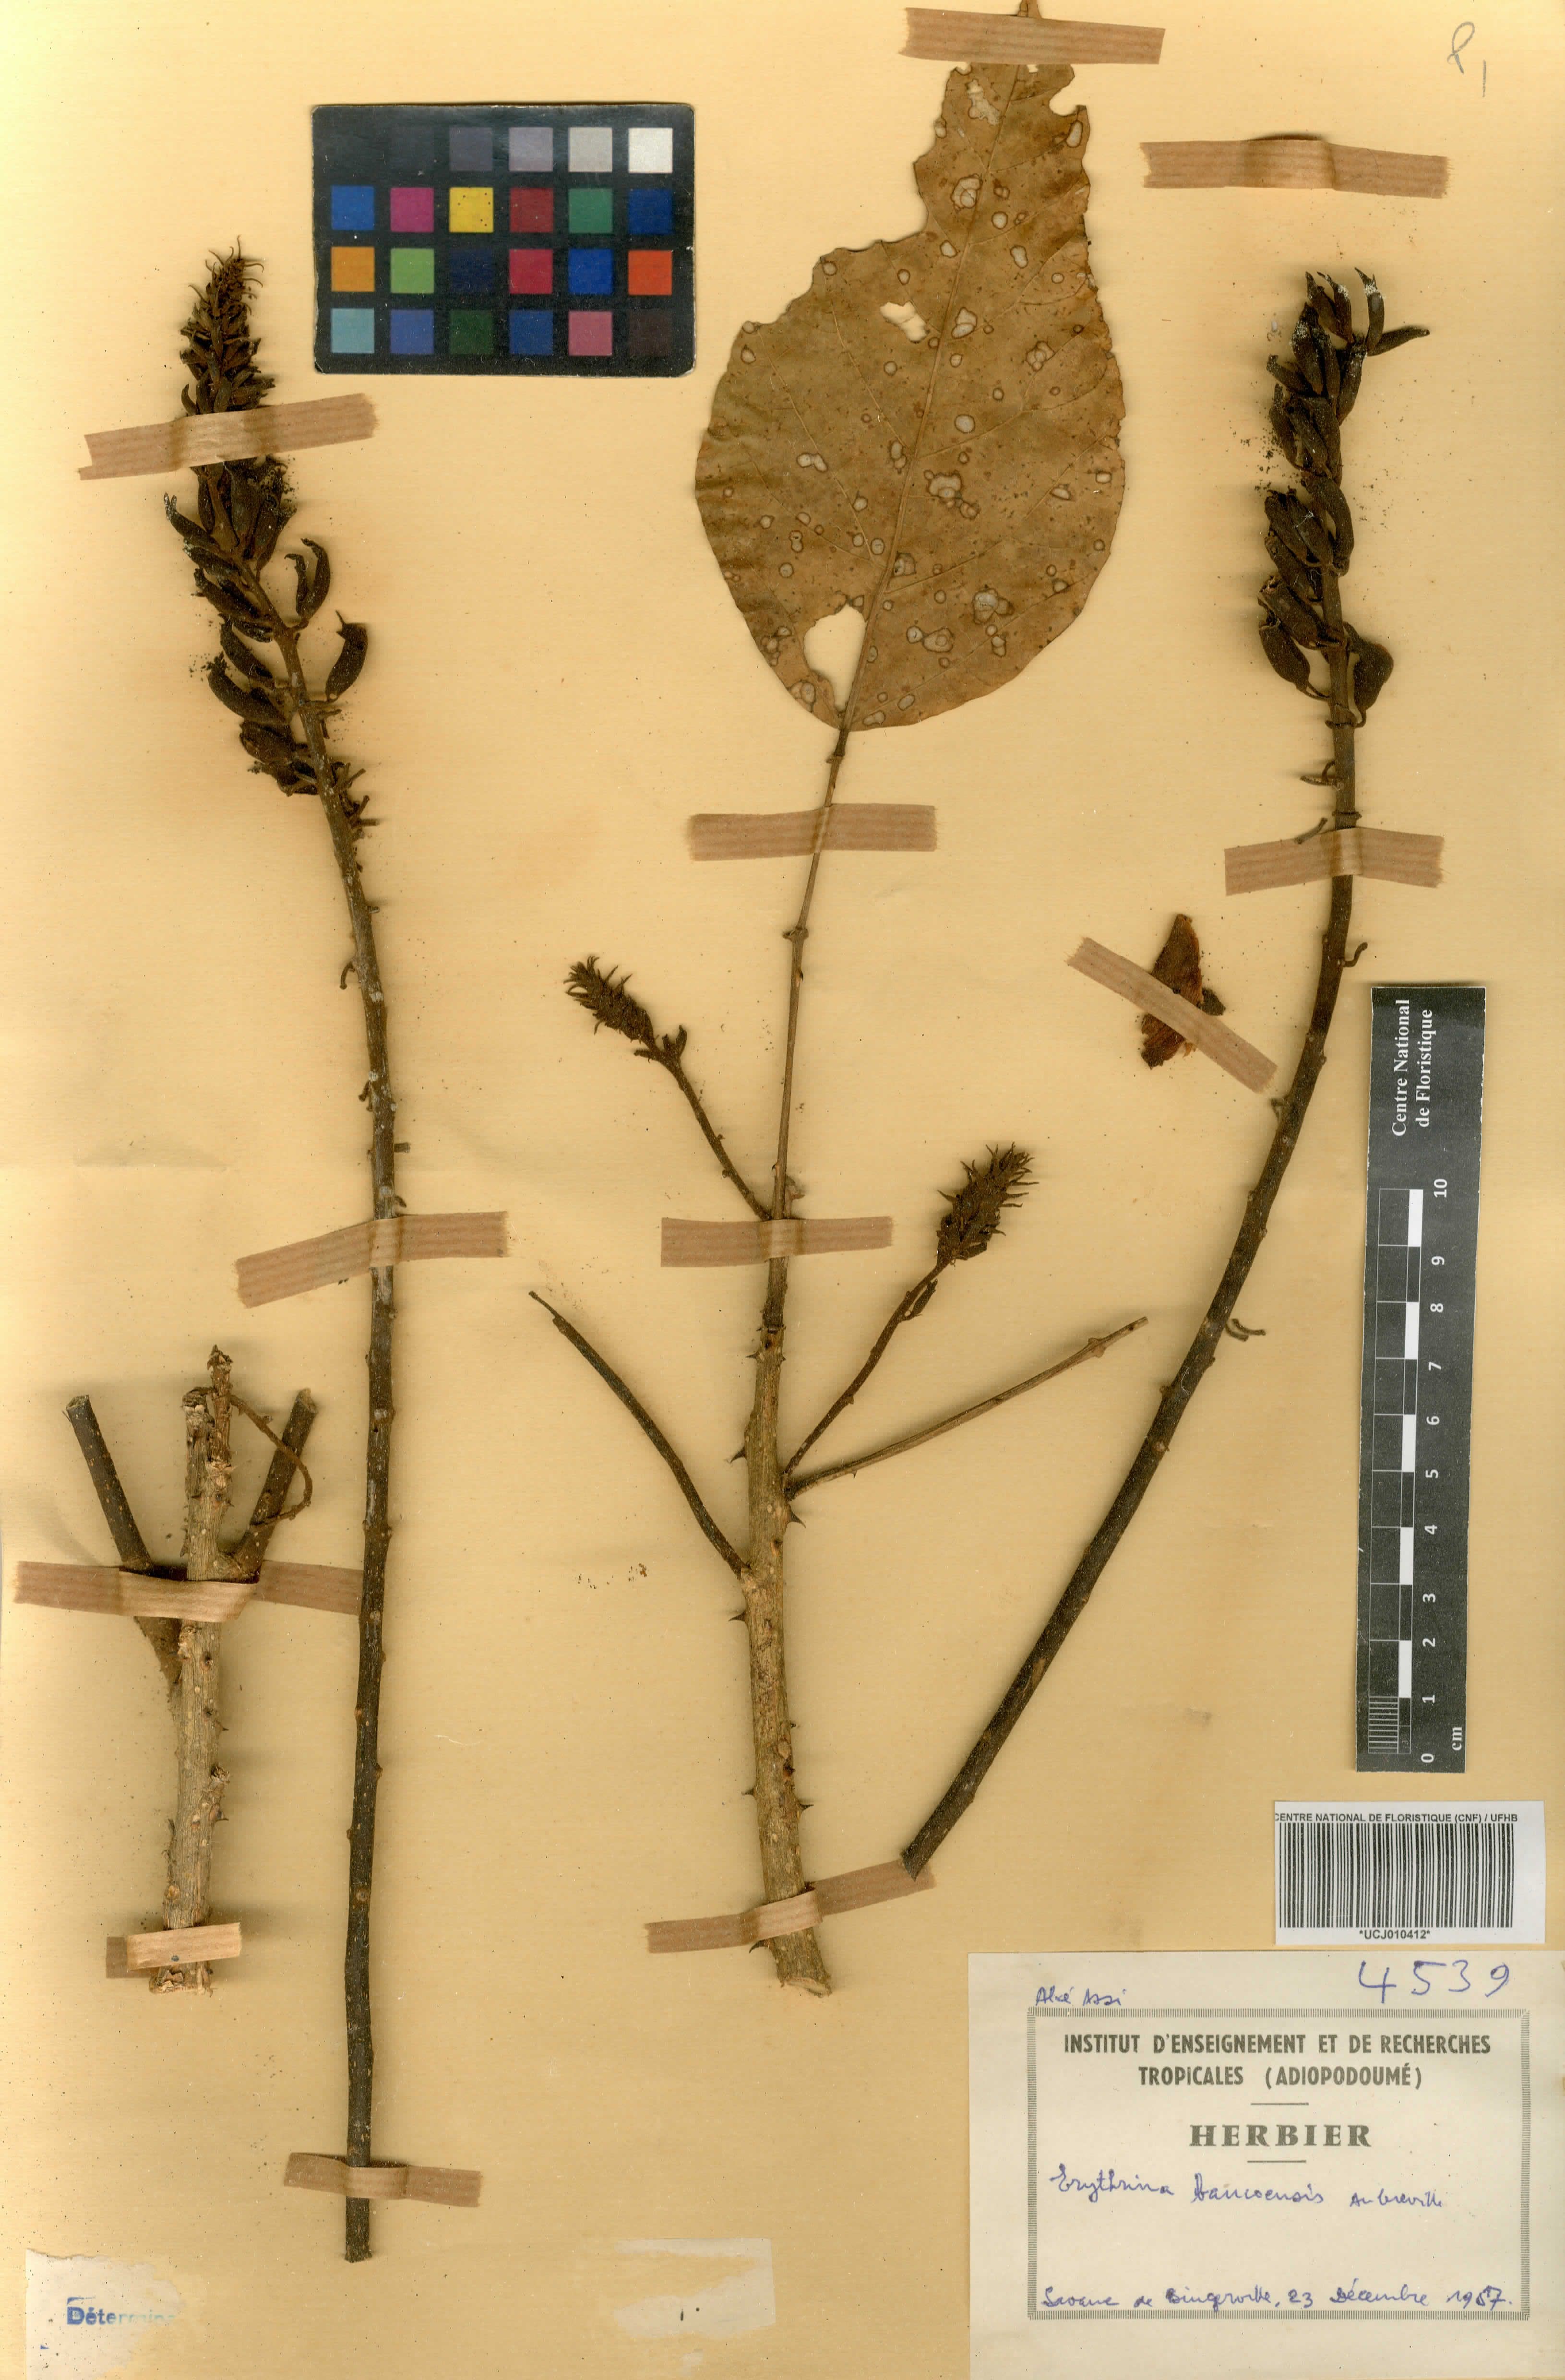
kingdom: Plantae
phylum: Tracheophyta
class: Magnoliopsida
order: Fabales
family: Fabaceae
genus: Erythrina
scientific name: Erythrina vogelii
